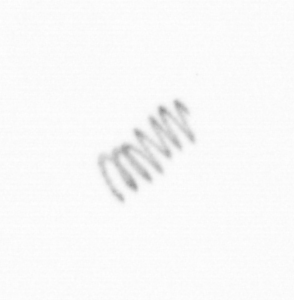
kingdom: Chromista
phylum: Ochrophyta
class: Bacillariophyceae
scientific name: Bacillariophyceae
